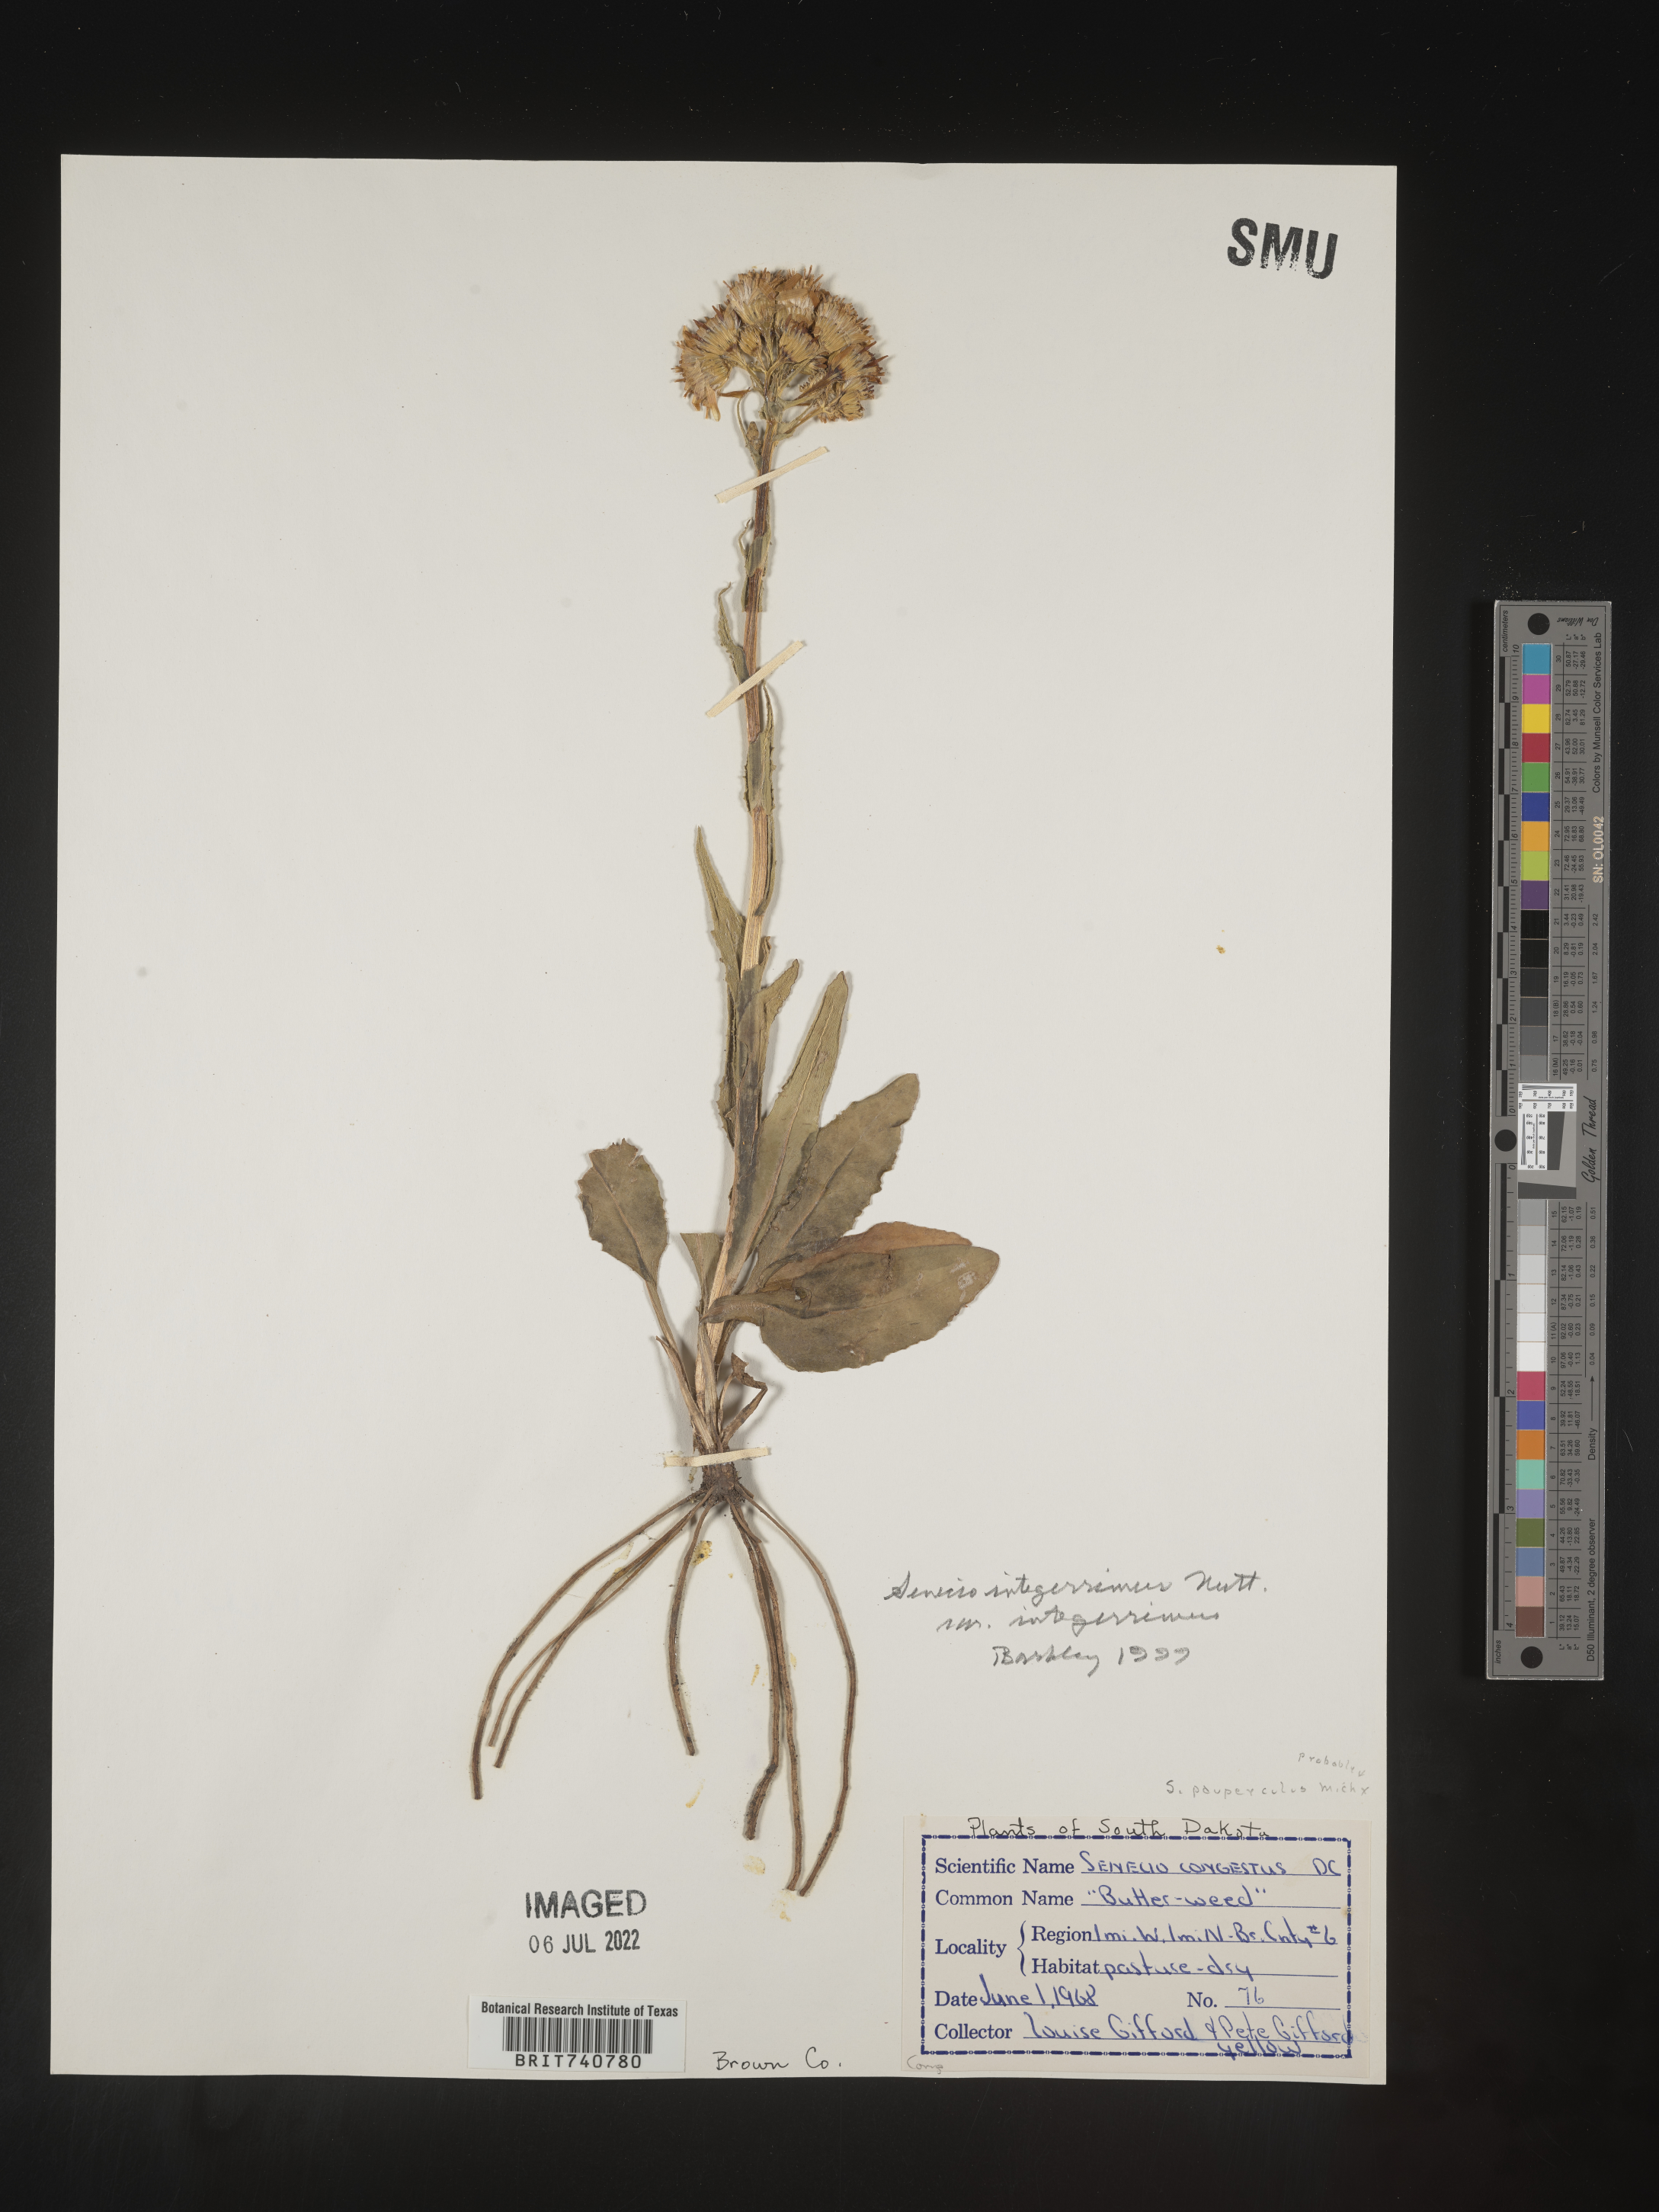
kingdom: Plantae
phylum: Tracheophyta
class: Magnoliopsida
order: Asterales
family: Asteraceae
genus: Senecio
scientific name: Senecio integerrimus
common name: Gaugeplant
